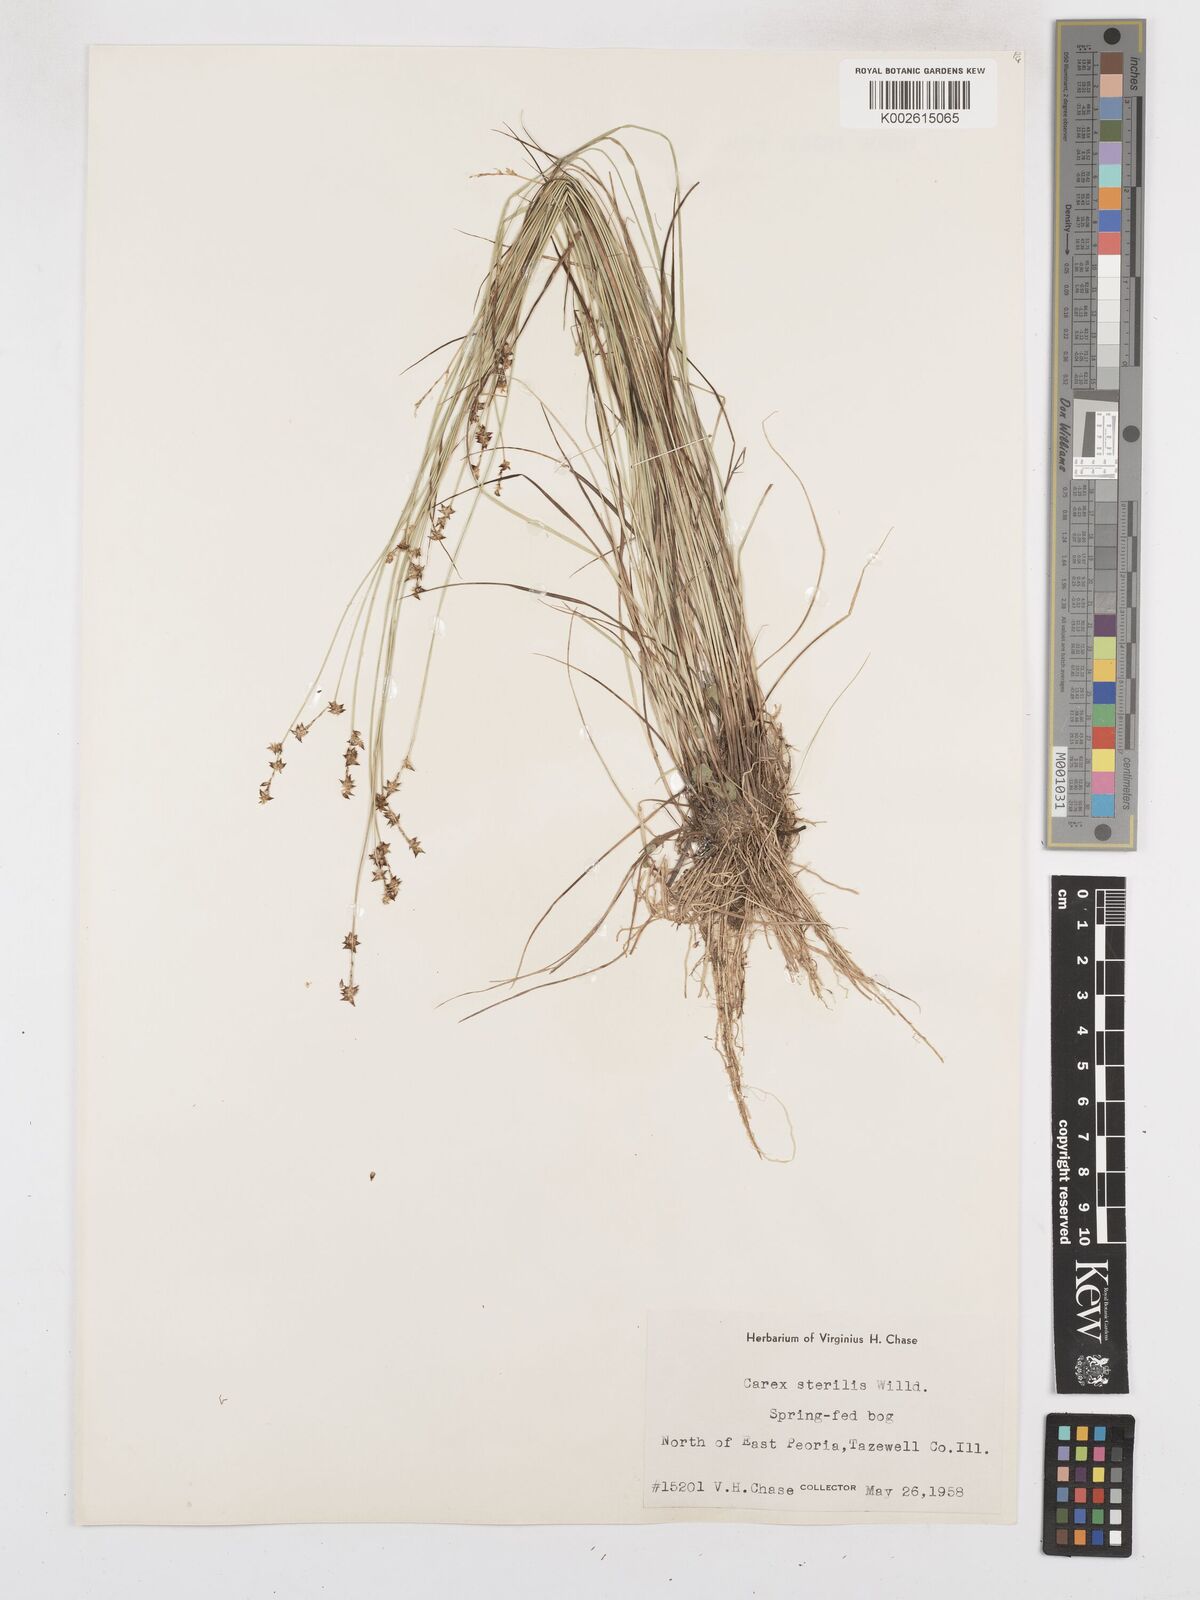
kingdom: Plantae
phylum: Tracheophyta
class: Liliopsida
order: Poales
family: Cyperaceae
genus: Carex
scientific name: Carex sterilis
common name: Dioecious sedge
